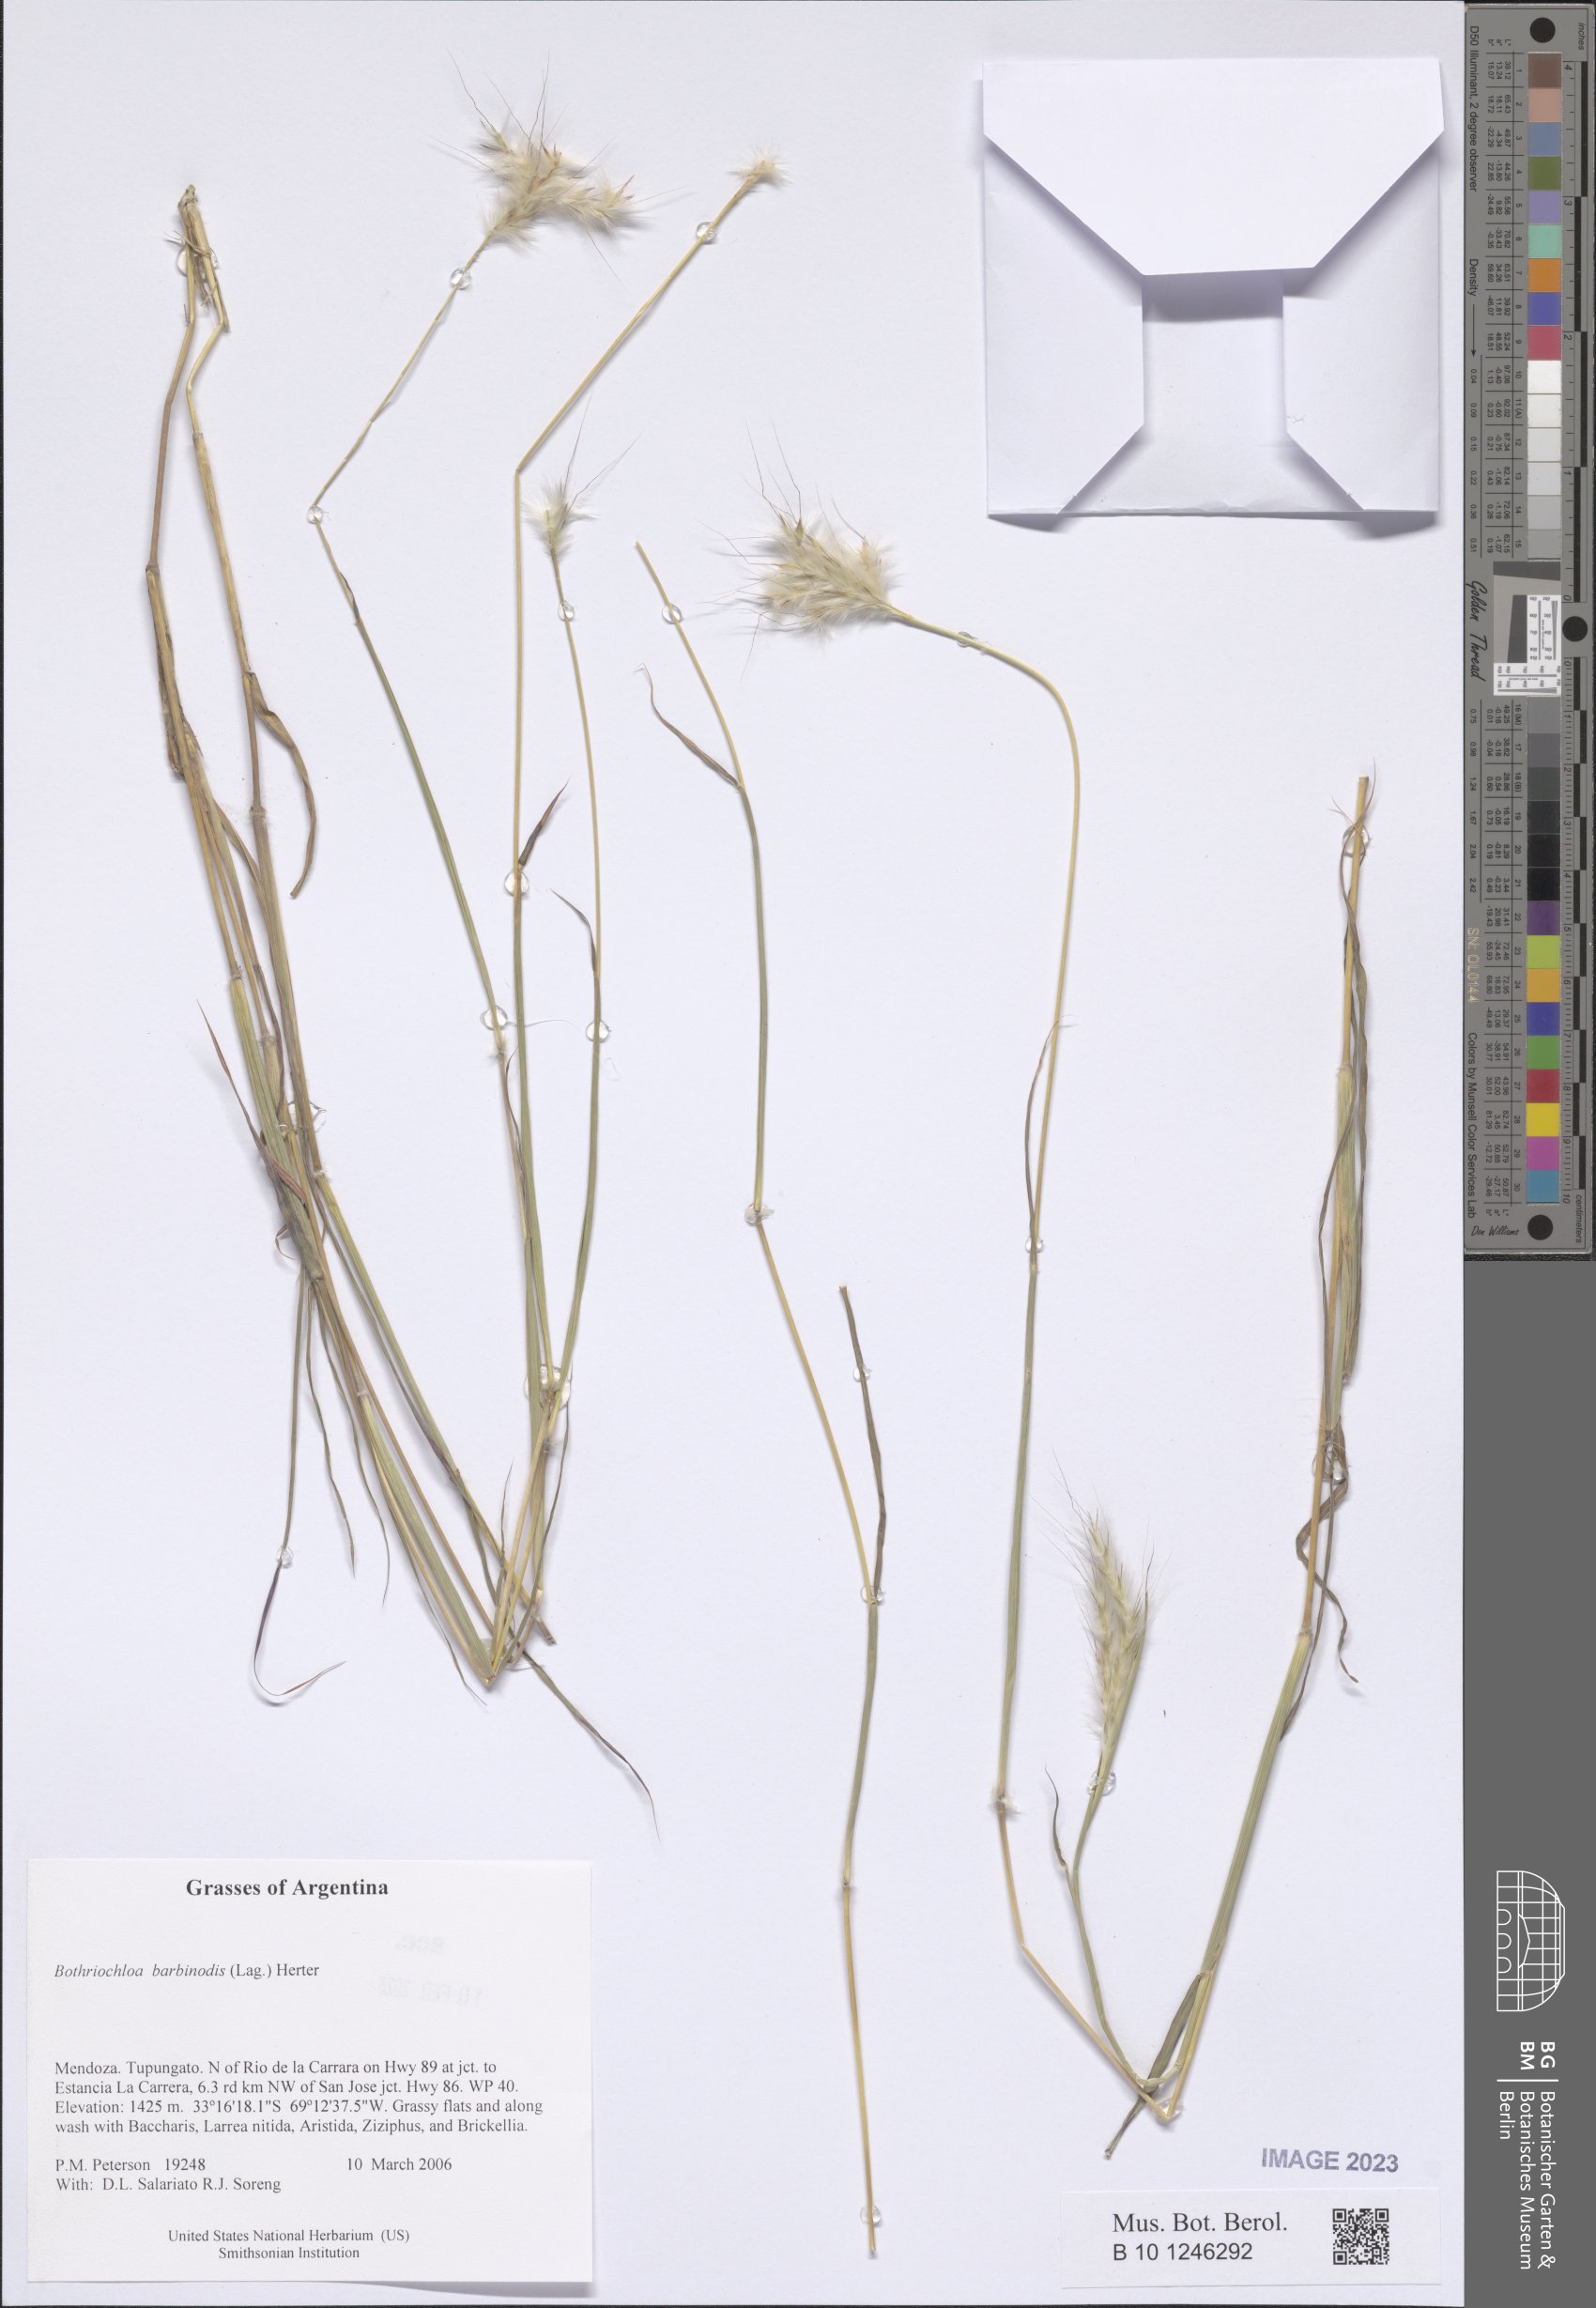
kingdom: Plantae
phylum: Tracheophyta
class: Liliopsida
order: Poales
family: Poaceae
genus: Bothriochloa
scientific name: Bothriochloa barbinodis
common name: Cane bluestem
